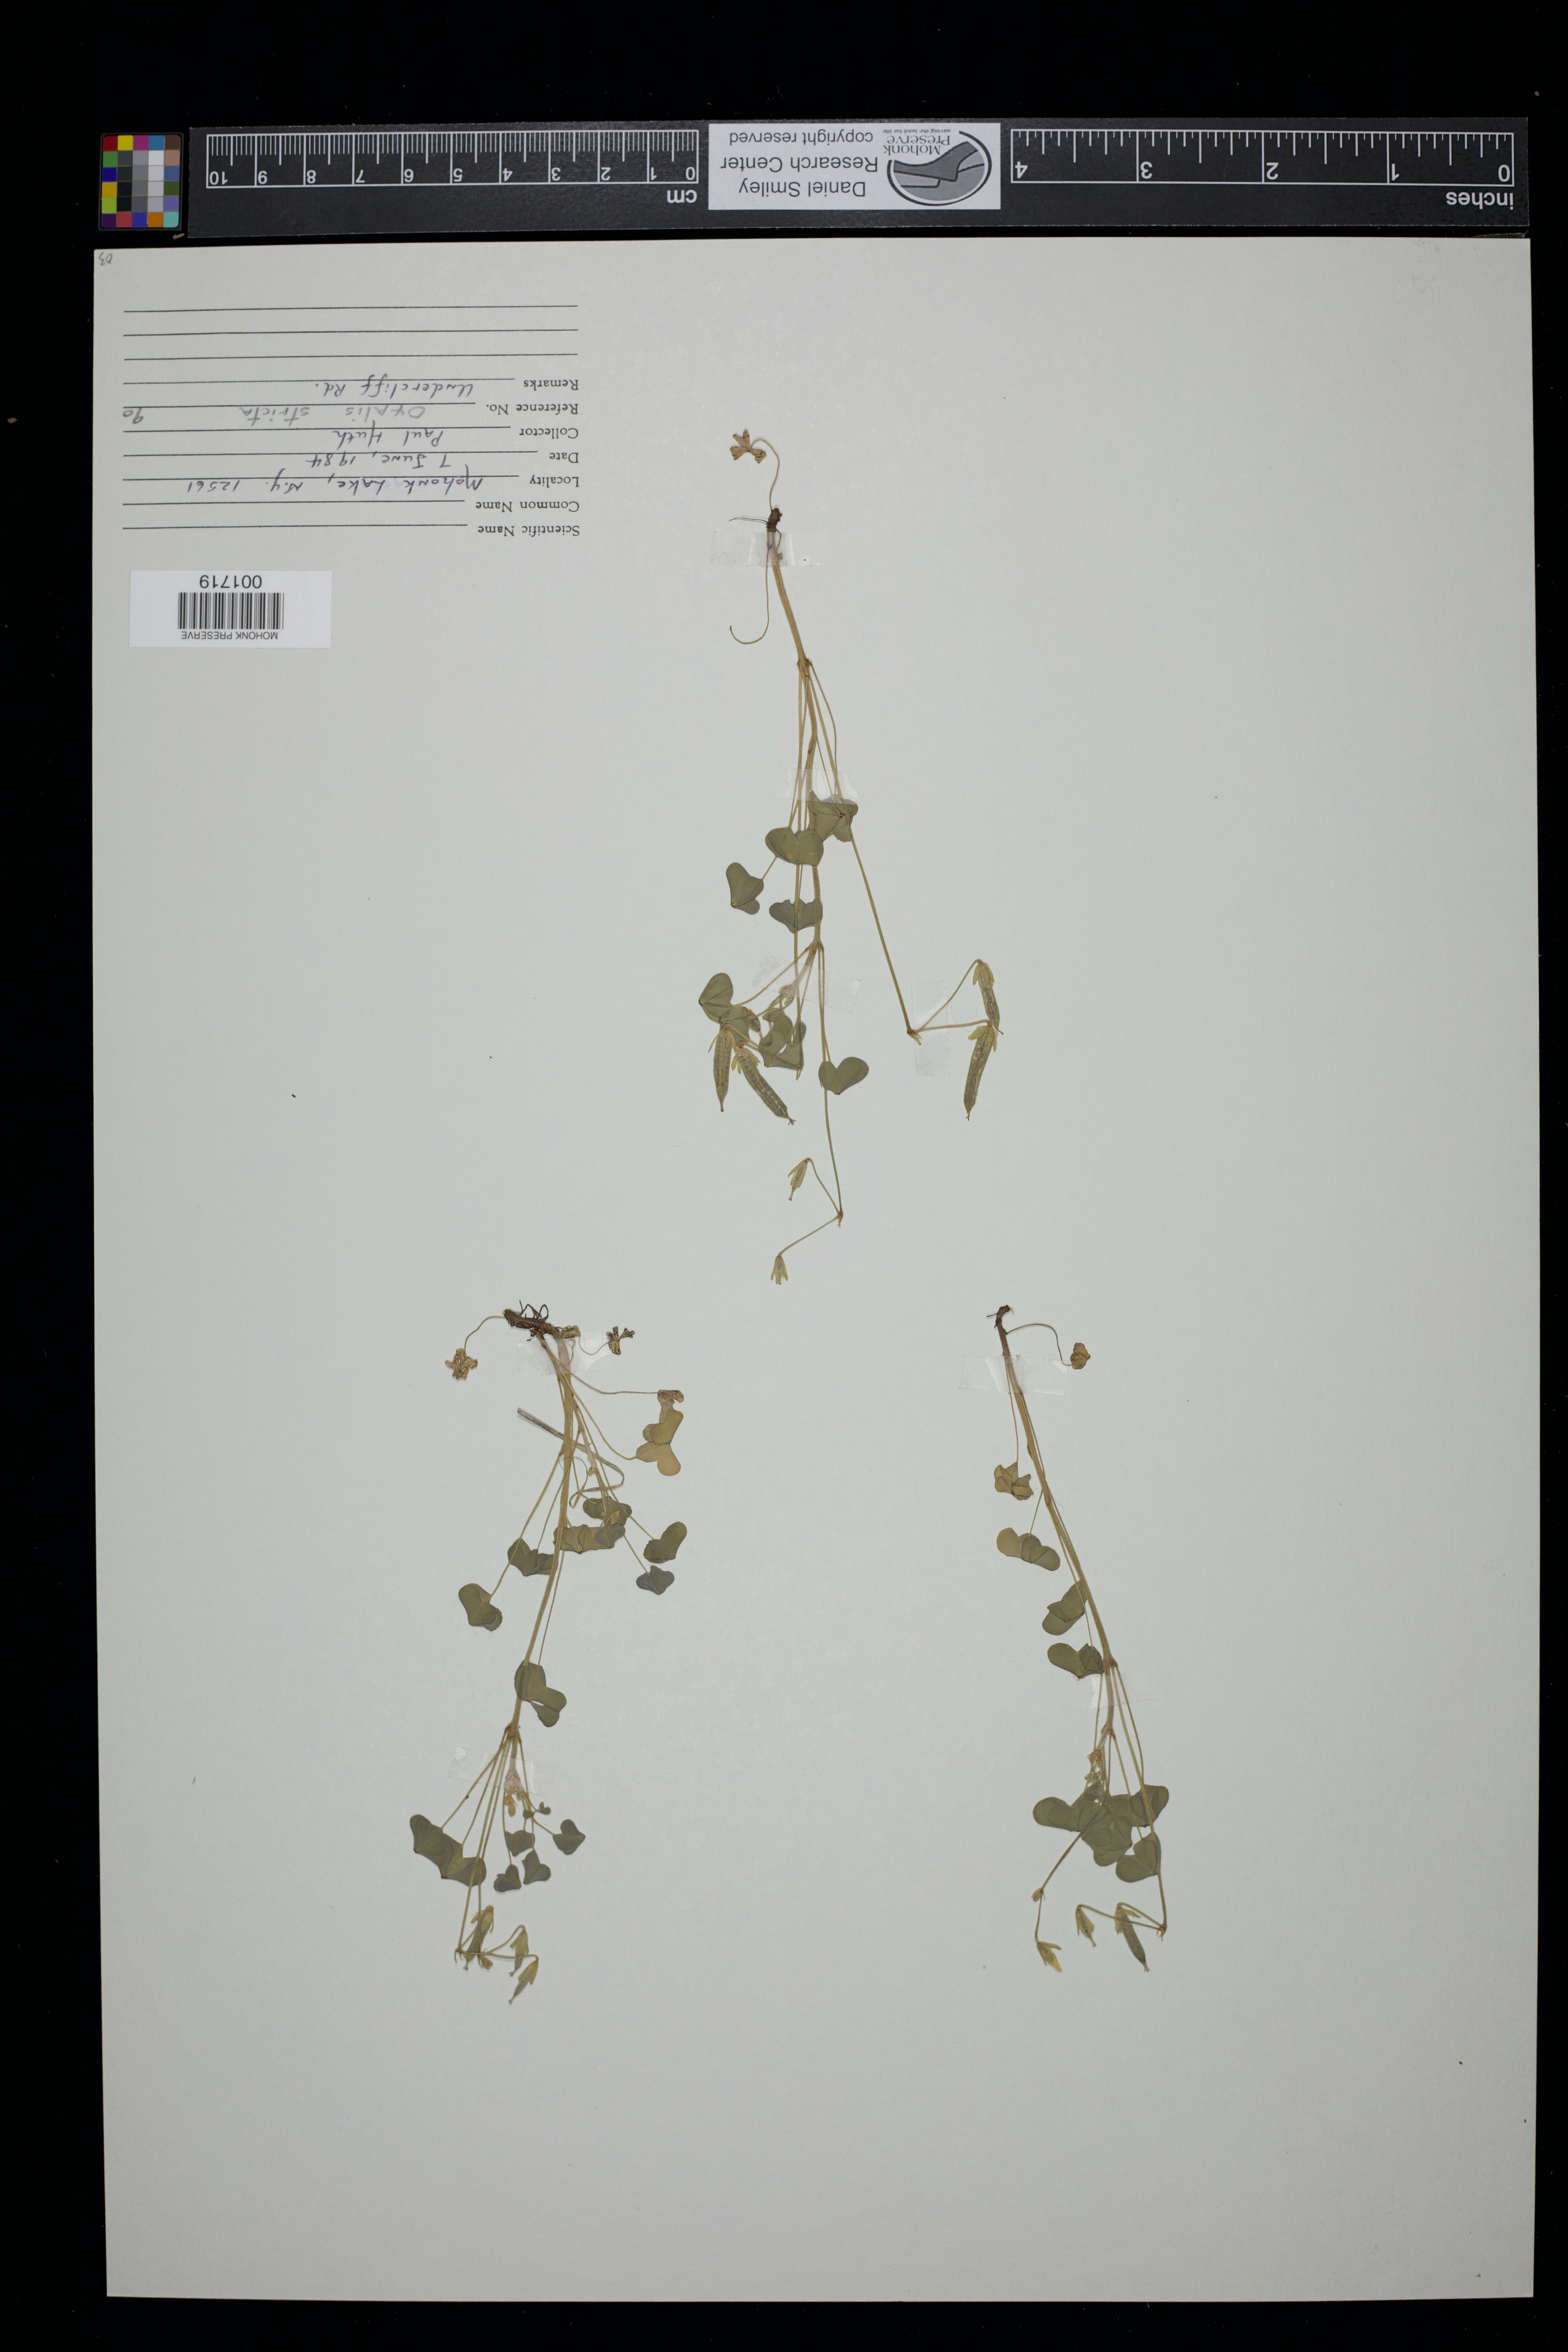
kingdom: Plantae
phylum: Tracheophyta
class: Magnoliopsida
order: Oxalidales
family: Oxalidaceae
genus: Oxalis
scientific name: Oxalis stricta
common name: Upright yellow-sorrel
